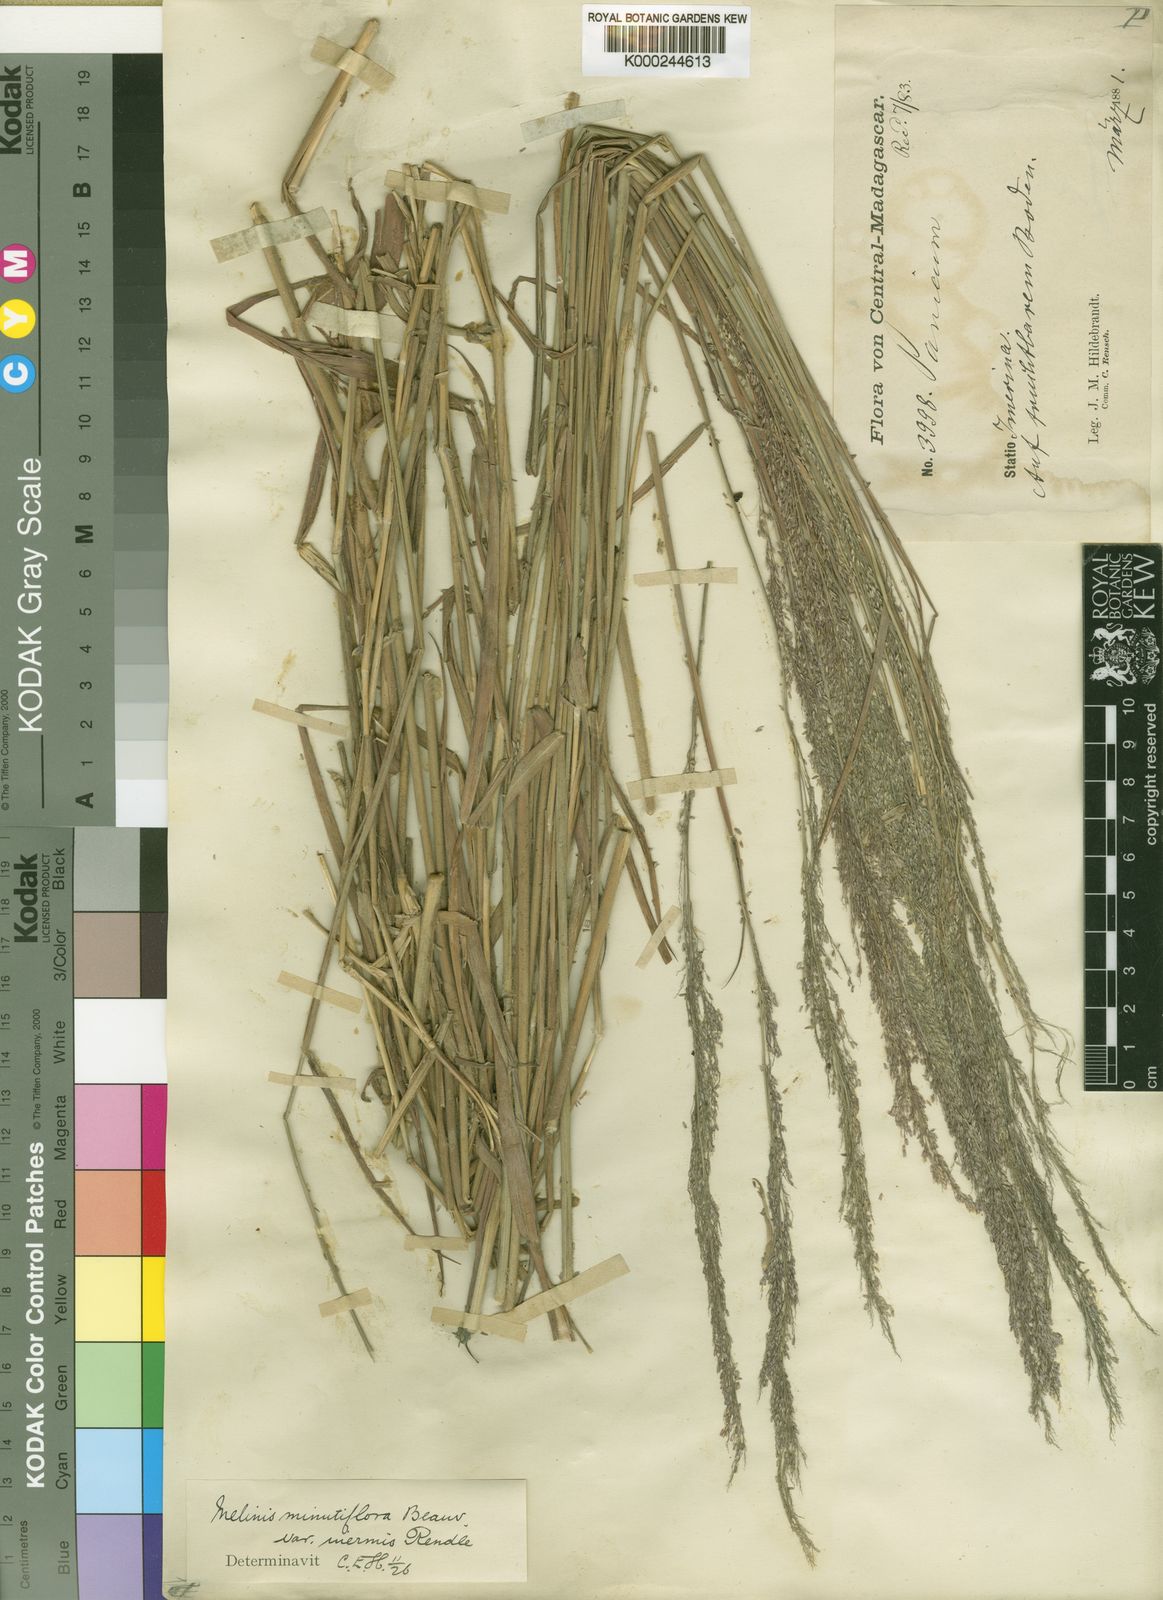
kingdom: Plantae
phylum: Tracheophyta
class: Liliopsida
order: Poales
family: Poaceae
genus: Melinis
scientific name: Melinis minutiflora
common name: Molassesgrass
